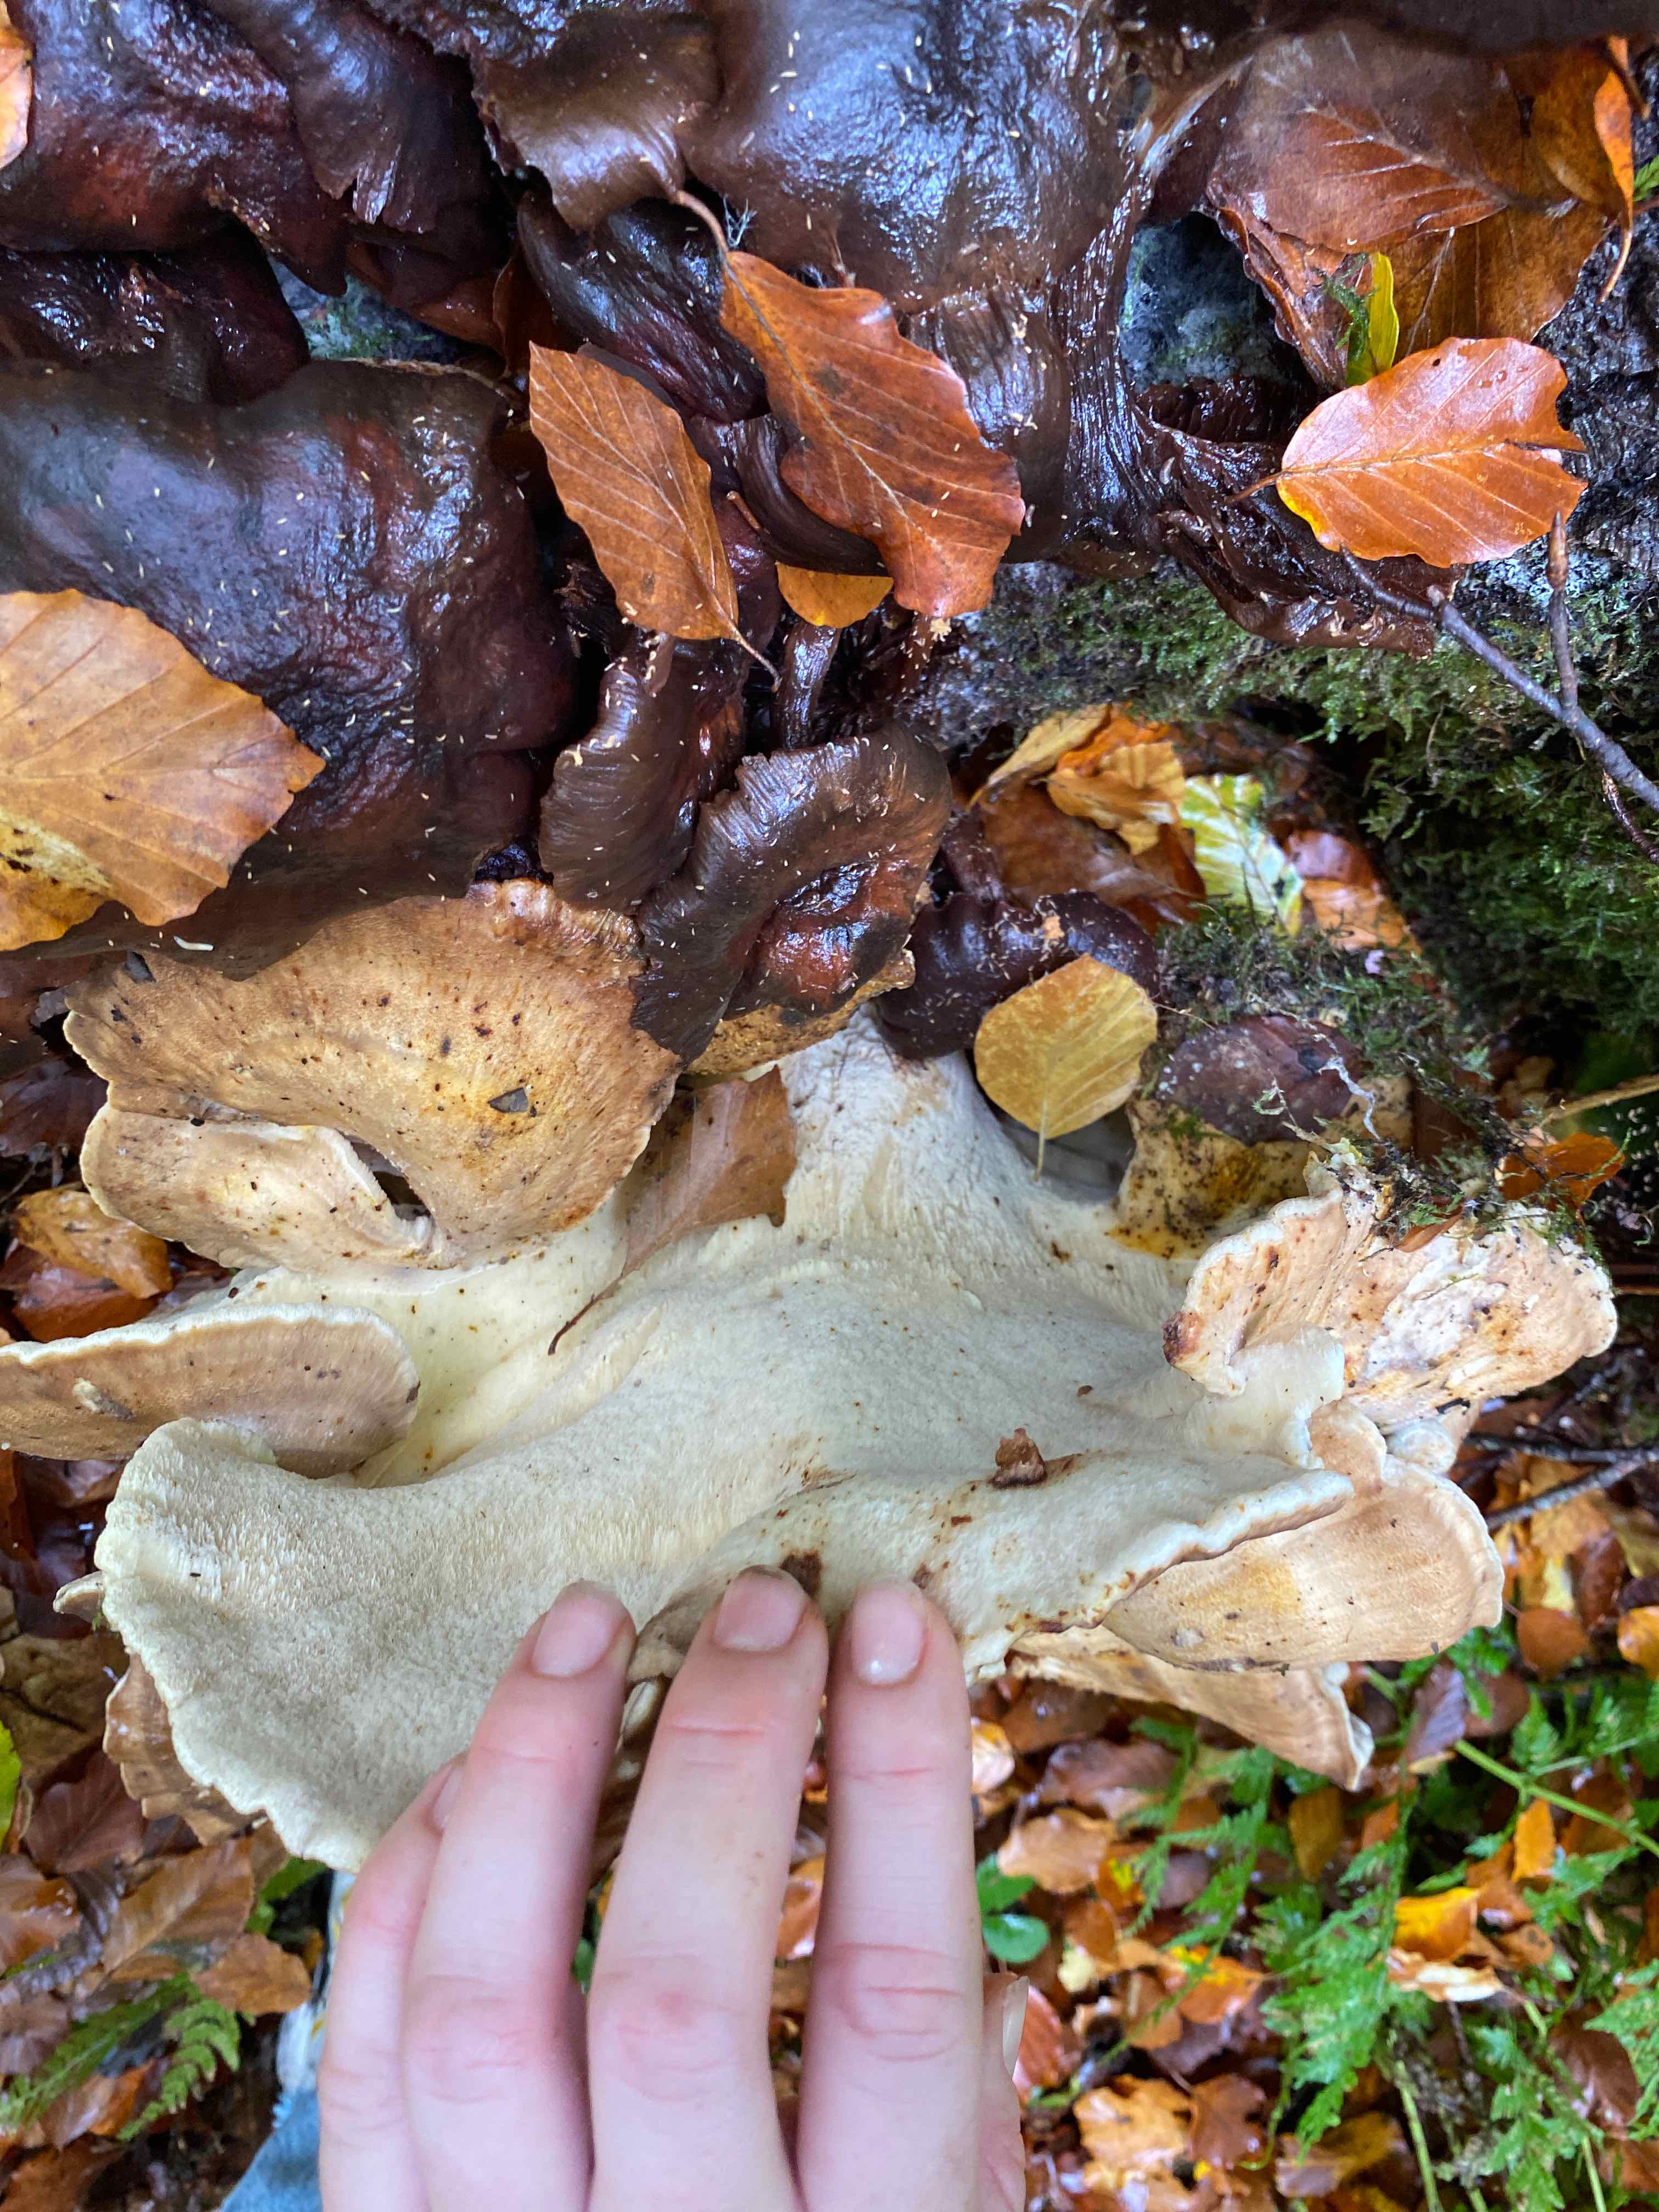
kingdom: Fungi
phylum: Basidiomycota
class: Agaricomycetes
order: Polyporales
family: Meripilaceae
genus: Meripilus
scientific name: Meripilus giganteus
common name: kæmpeporesvamp
